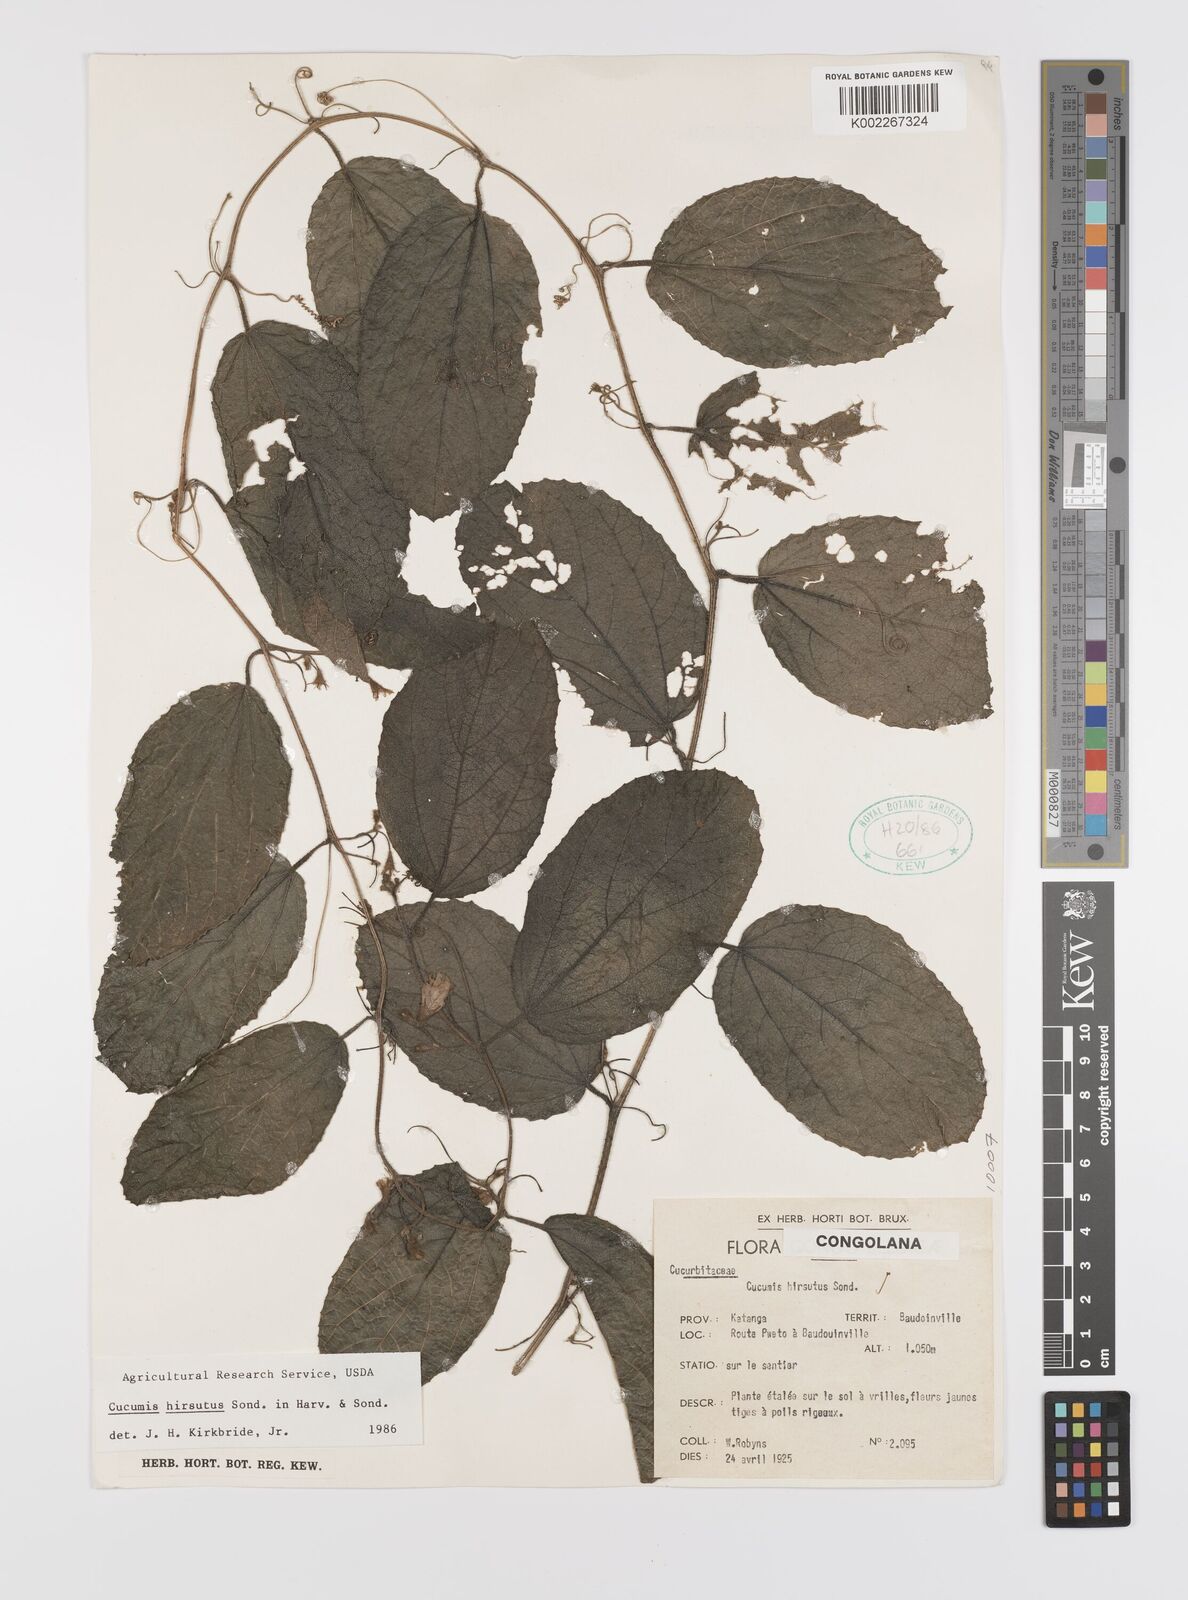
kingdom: Plantae
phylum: Tracheophyta
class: Magnoliopsida
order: Cucurbitales
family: Cucurbitaceae
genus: Cucumis
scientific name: Cucumis hirsutus
